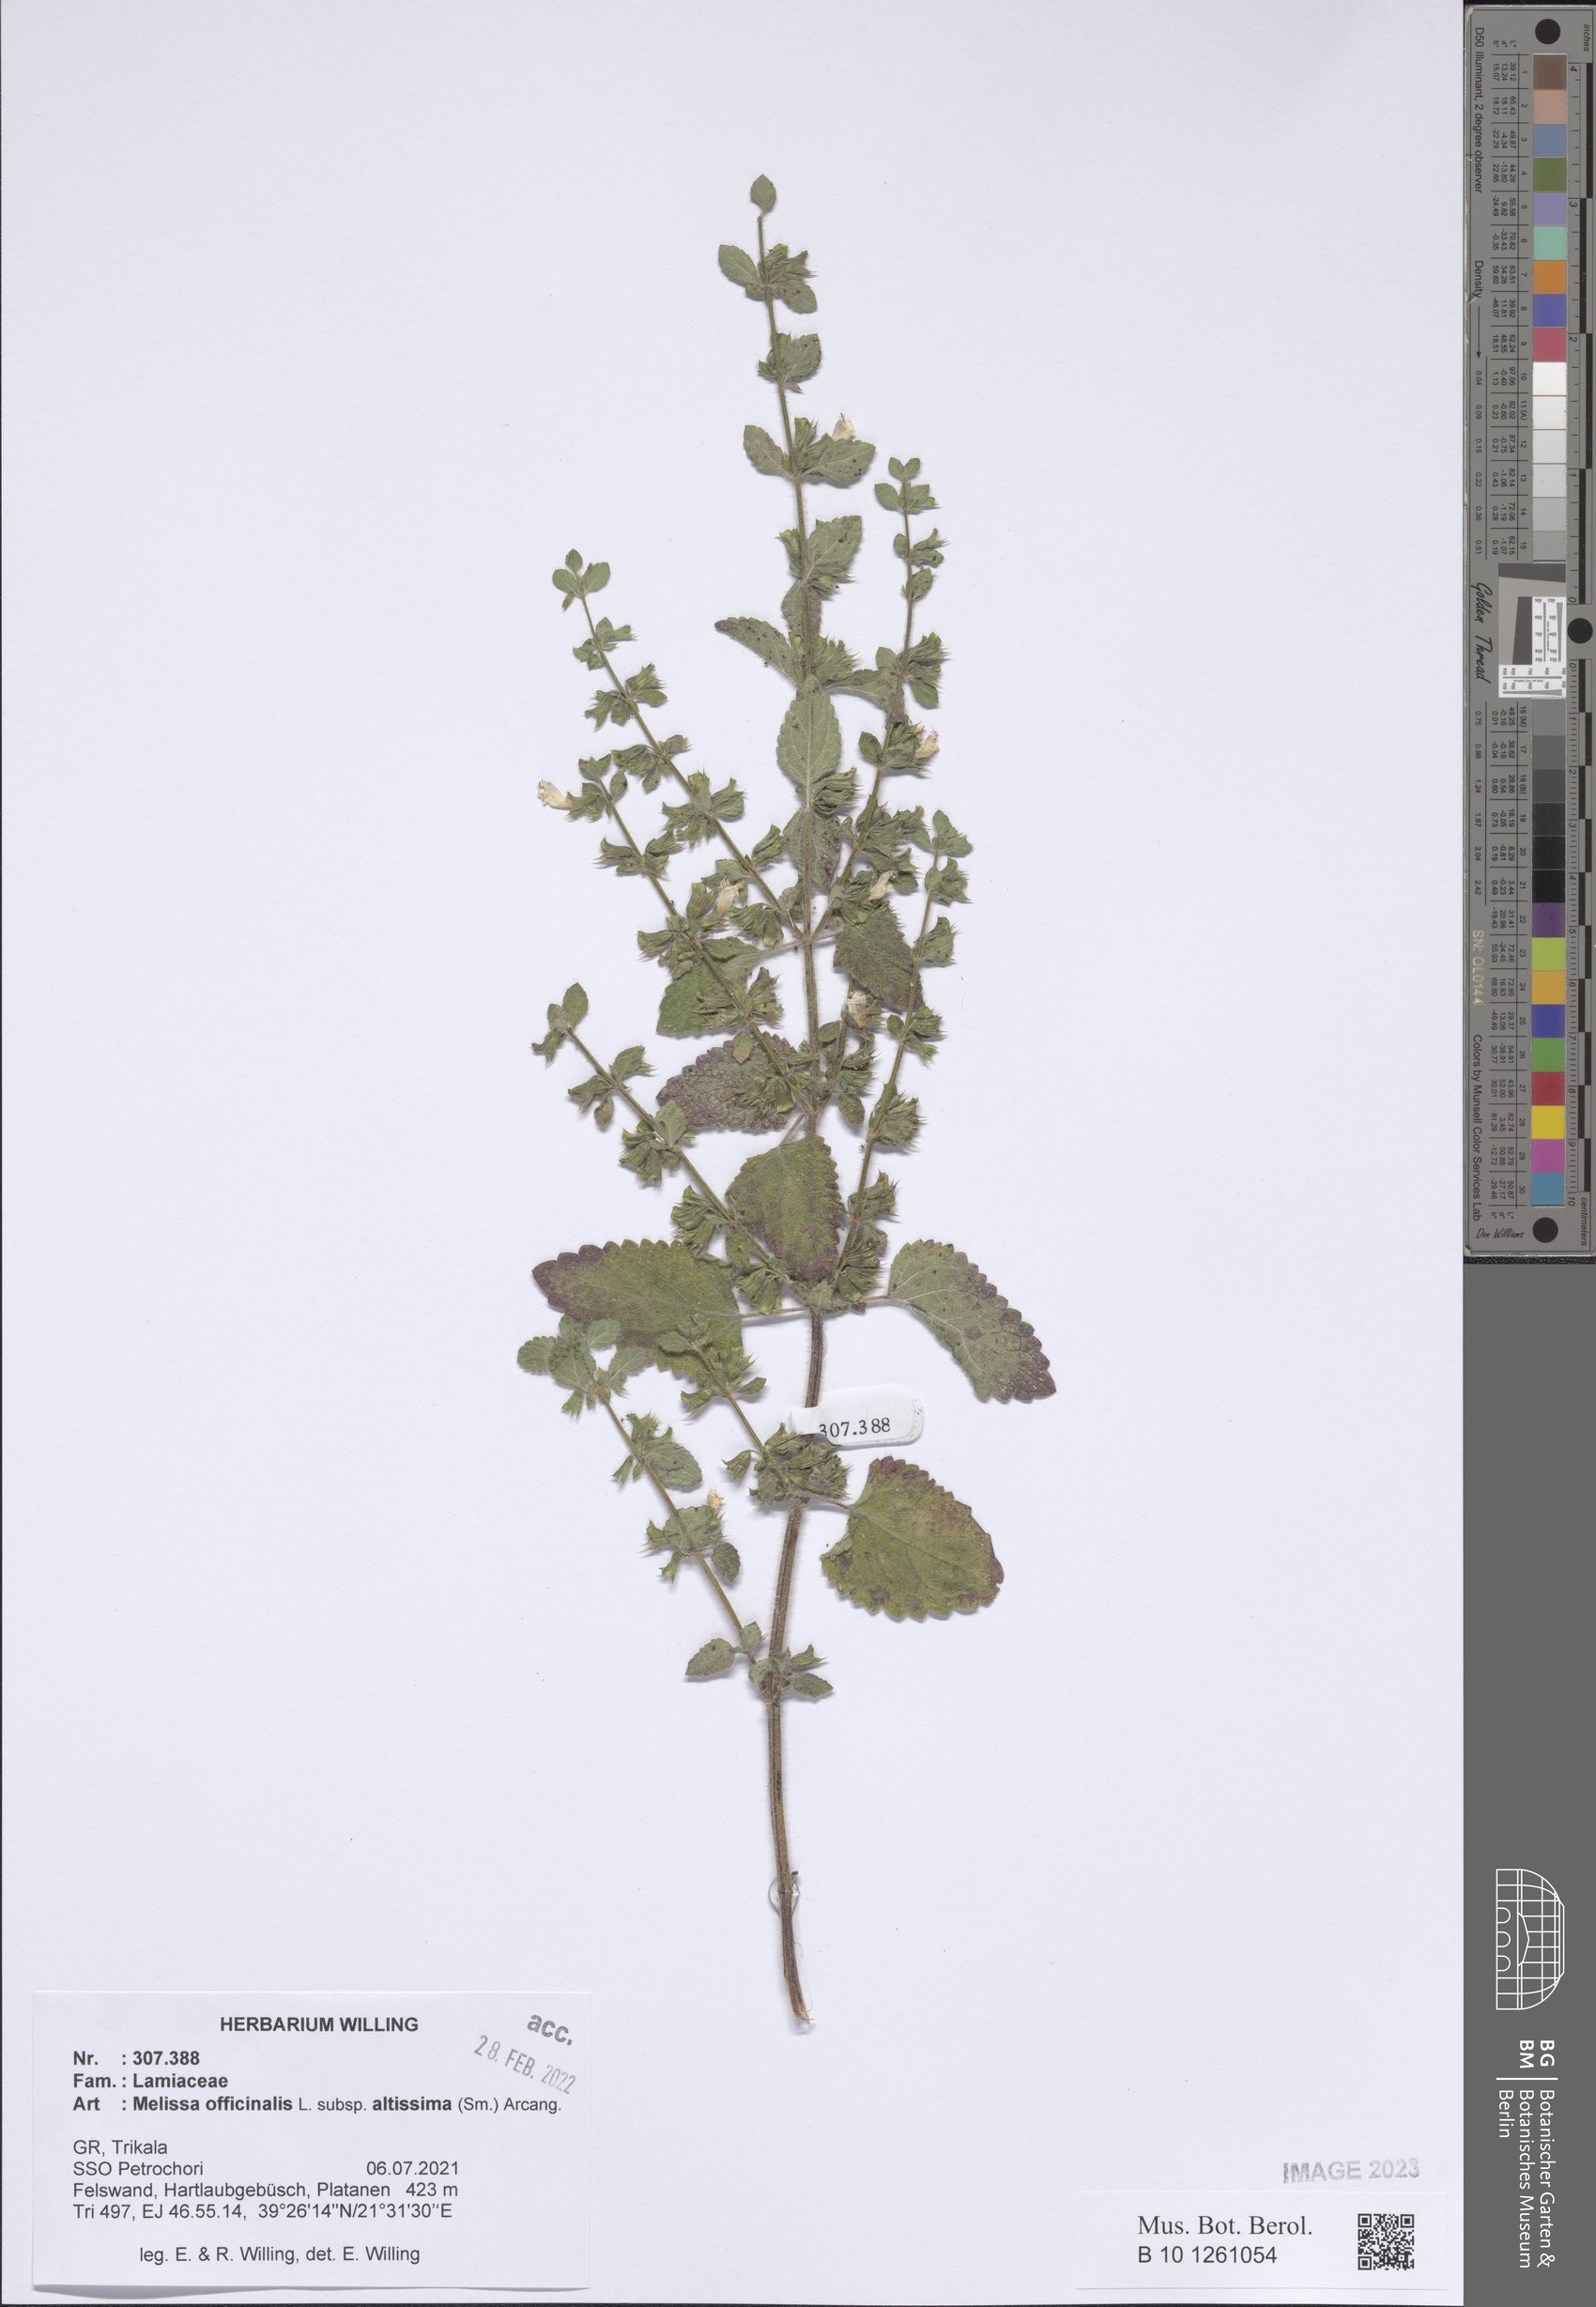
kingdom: Plantae
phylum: Tracheophyta
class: Magnoliopsida
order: Lamiales
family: Lamiaceae
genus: Melissa
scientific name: Melissa officinalis
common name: Balm
